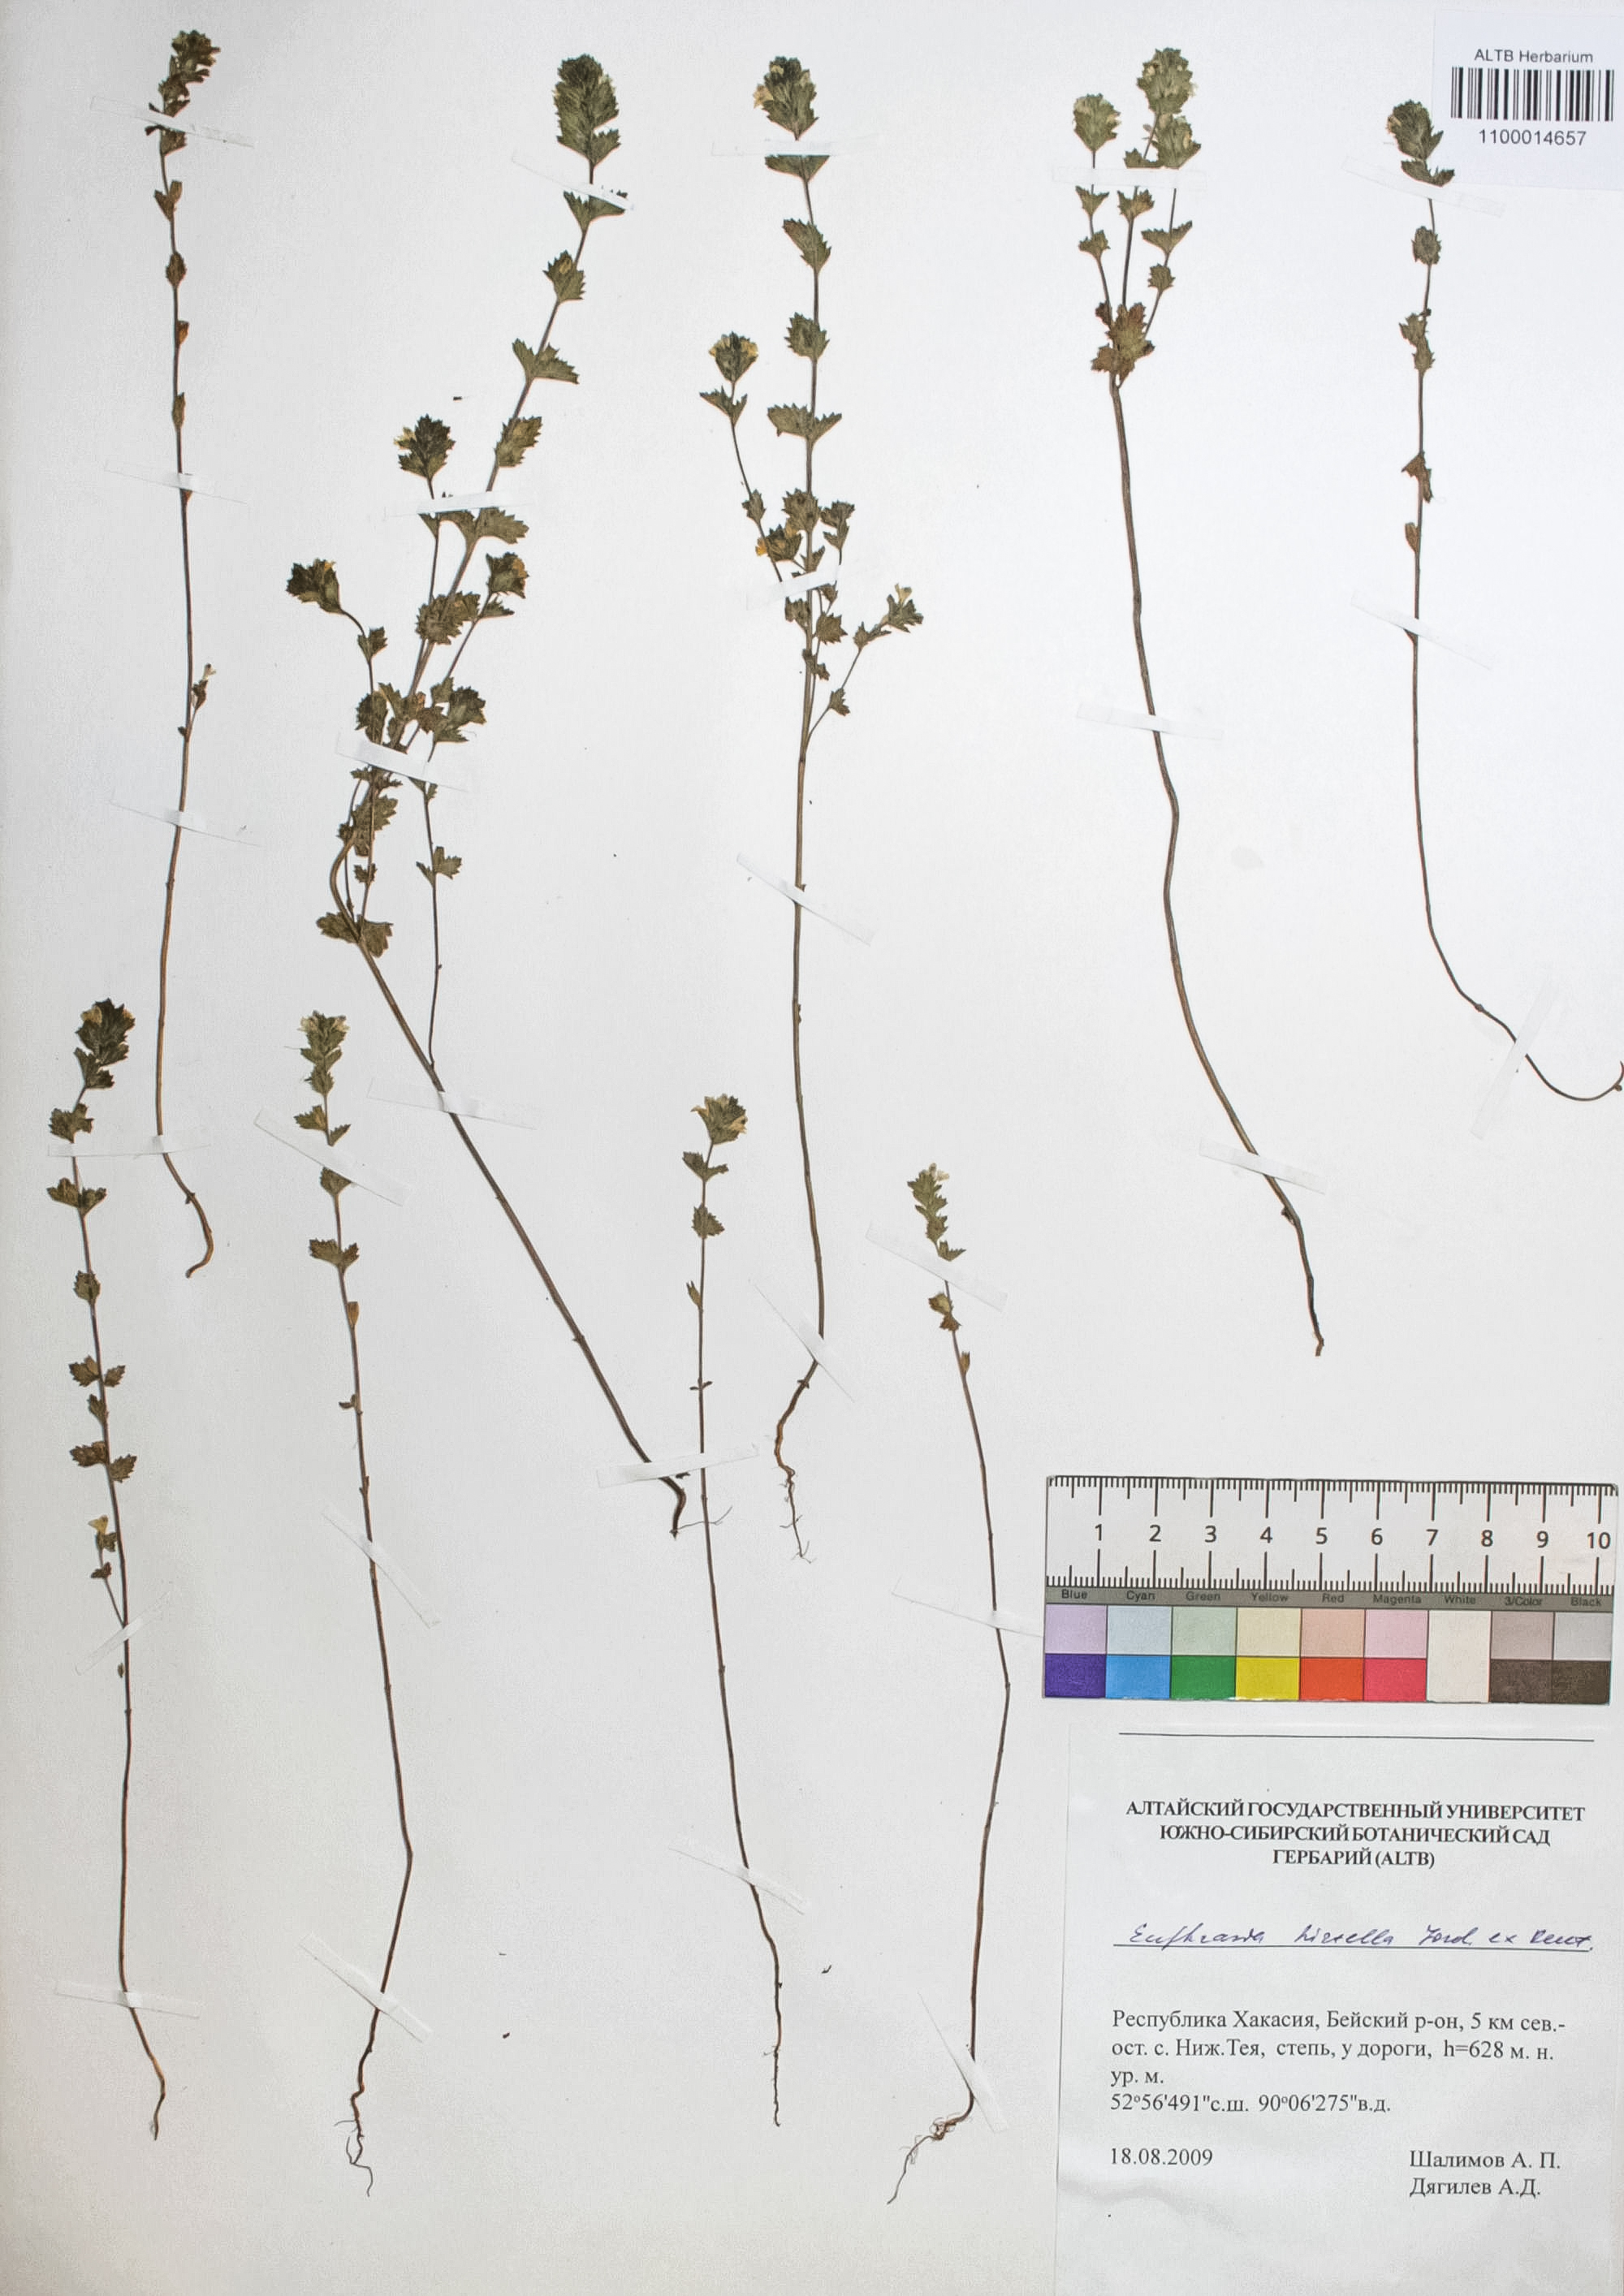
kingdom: Plantae
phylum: Tracheophyta
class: Magnoliopsida
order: Lamiales
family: Orobanchaceae
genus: Euphrasia
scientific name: Euphrasia hirtella
